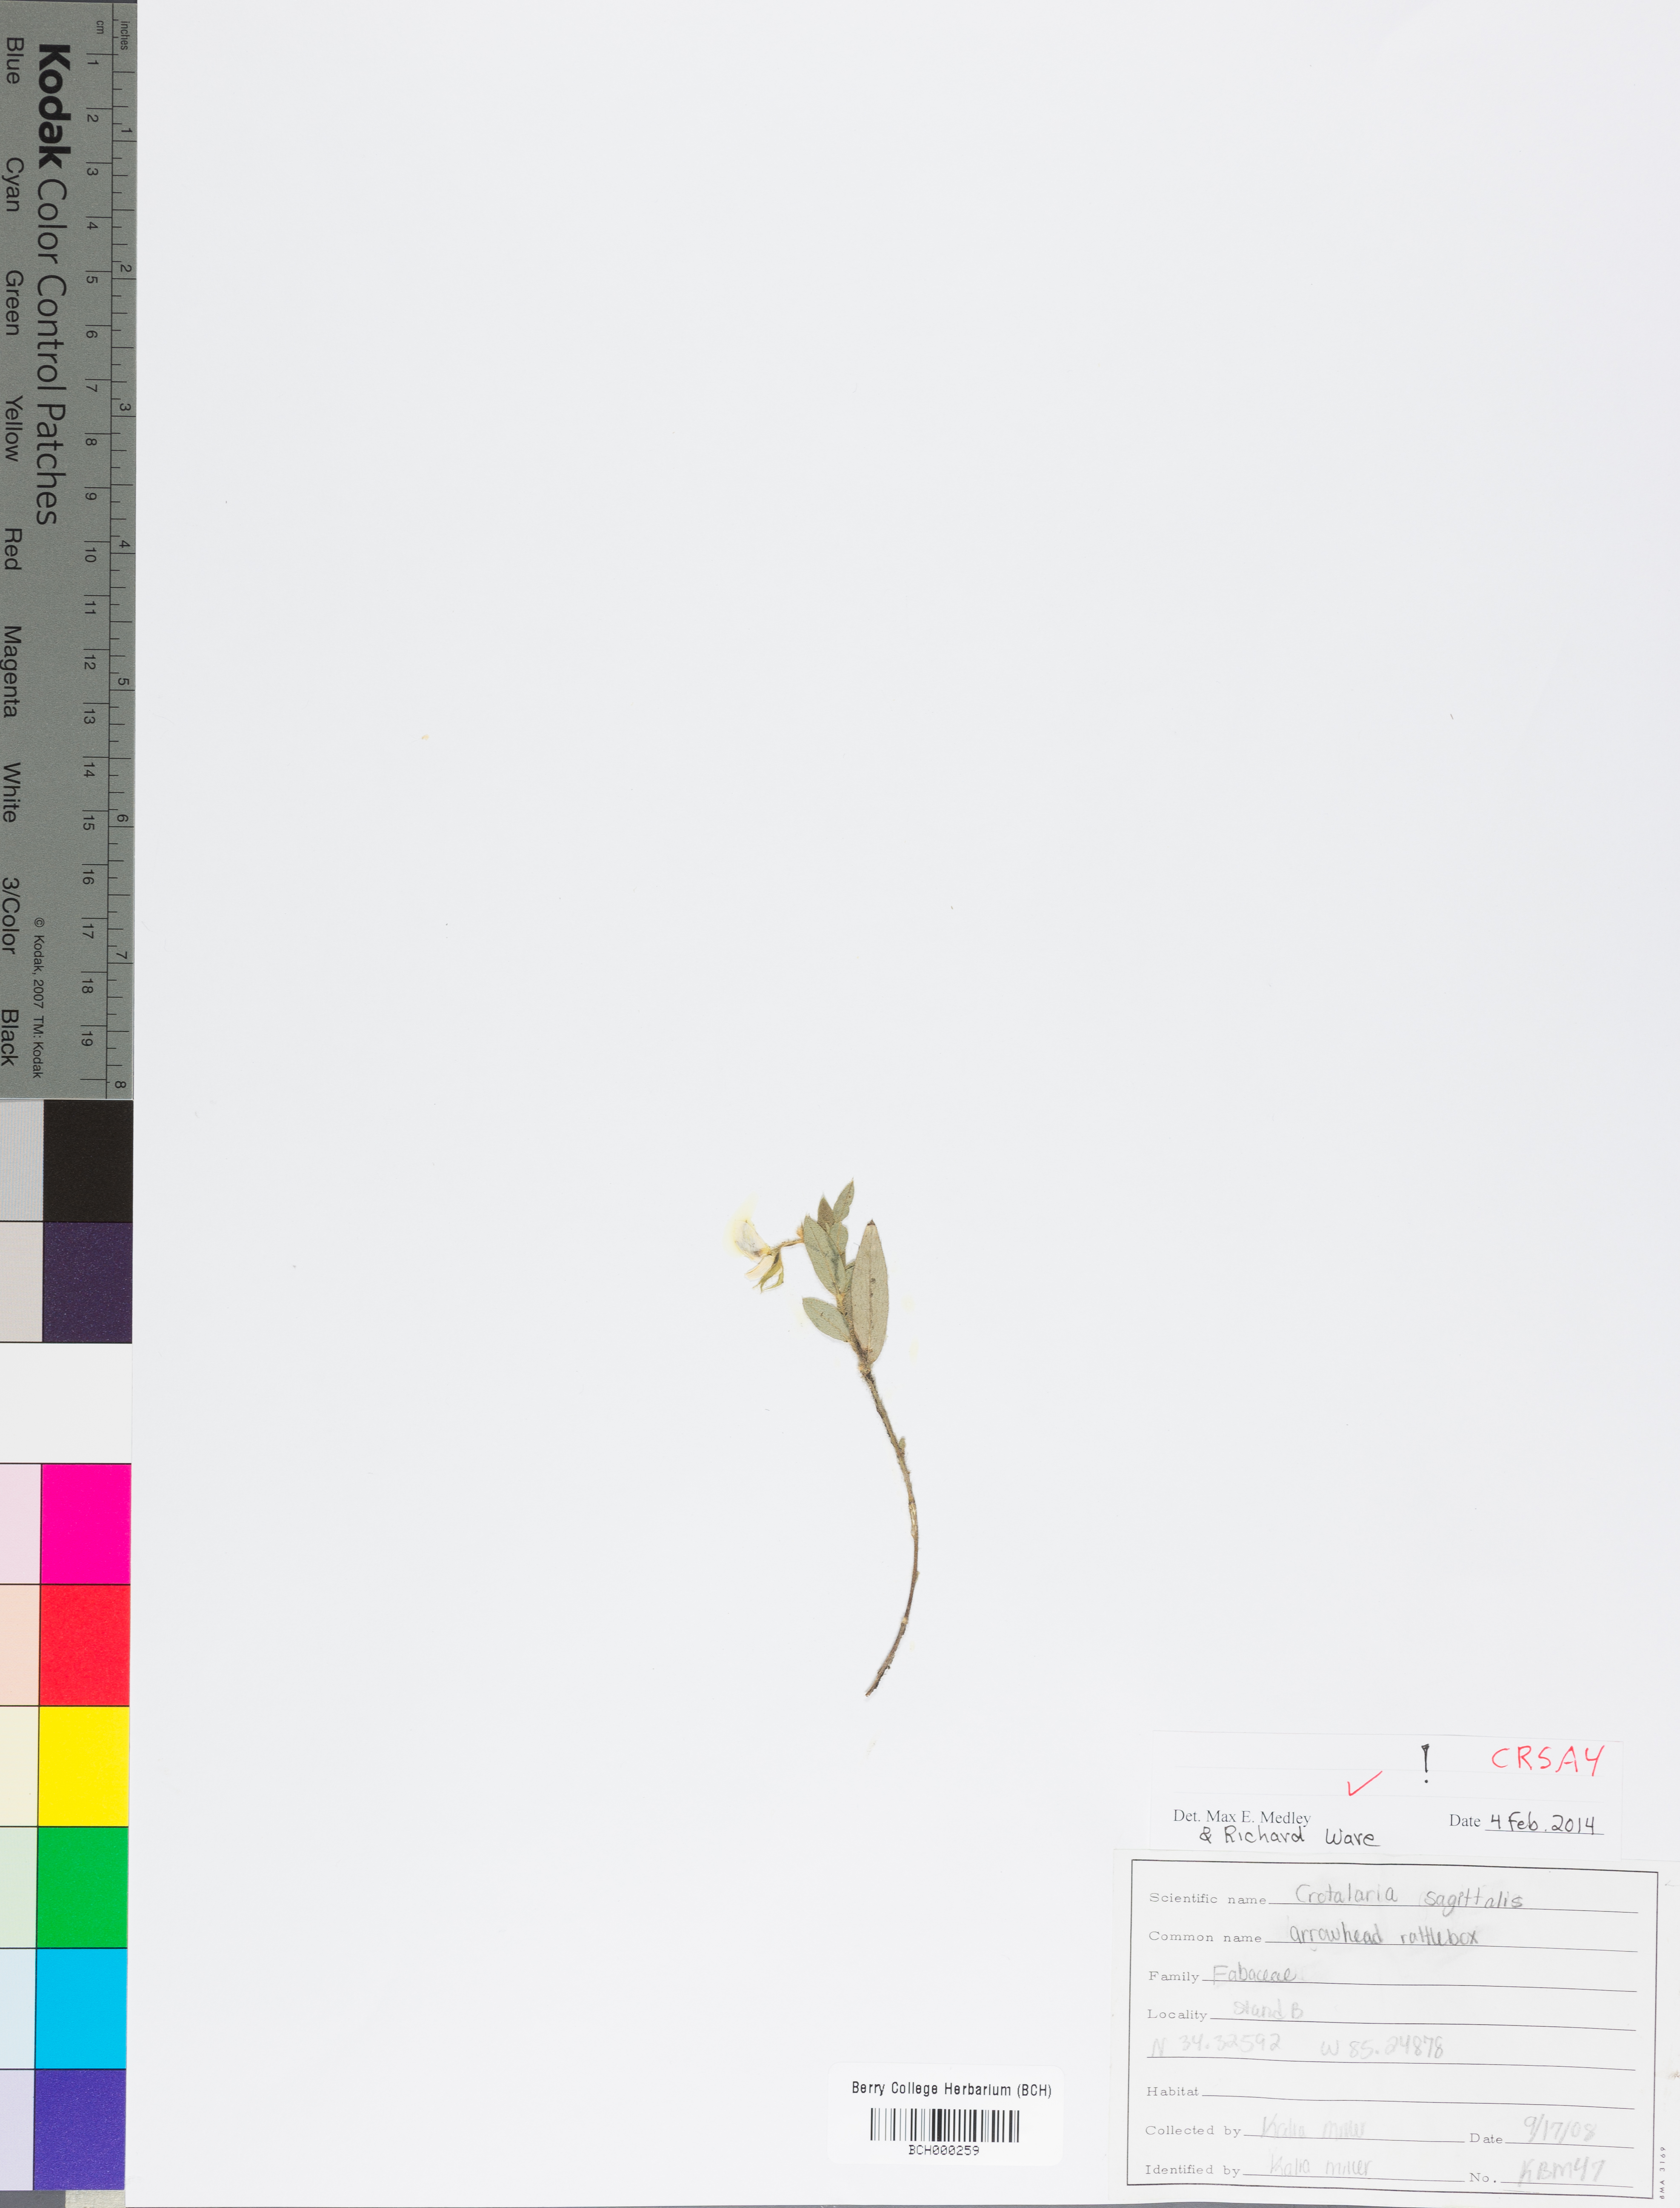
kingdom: Plantae
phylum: Tracheophyta
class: Magnoliopsida
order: Fabales
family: Fabaceae
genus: Crotalaria
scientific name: Crotalaria sagittalis
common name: Arrowhead rattlebox
